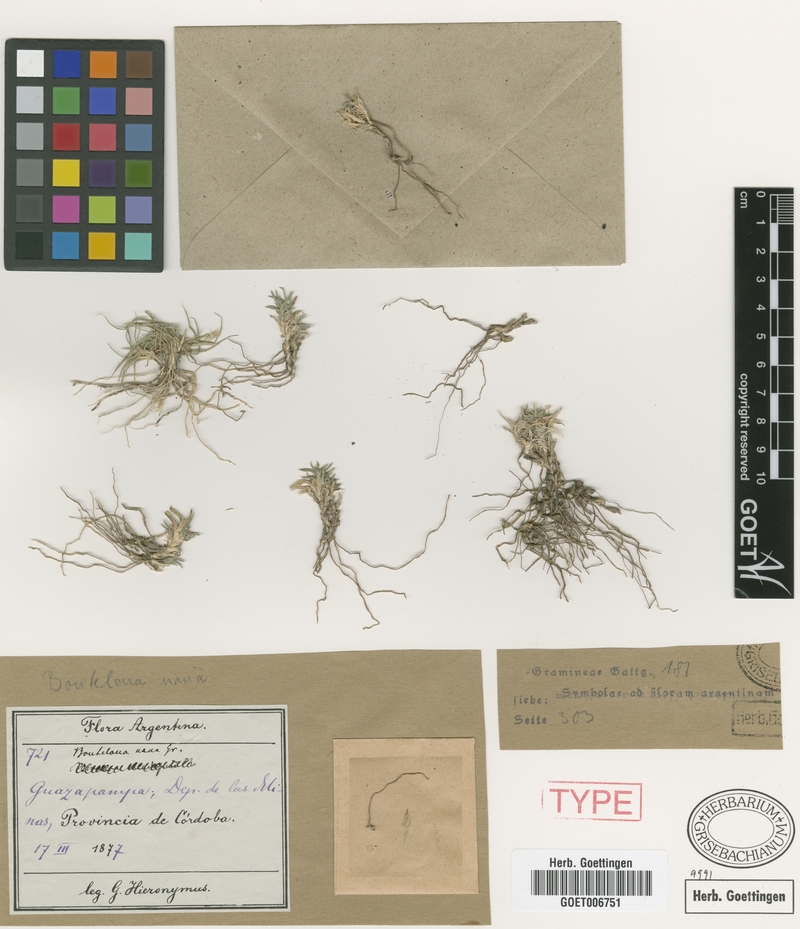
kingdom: Plantae
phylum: Tracheophyta
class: Liliopsida
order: Poales
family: Poaceae
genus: Neobouteloua
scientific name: Neobouteloua lophostachya
